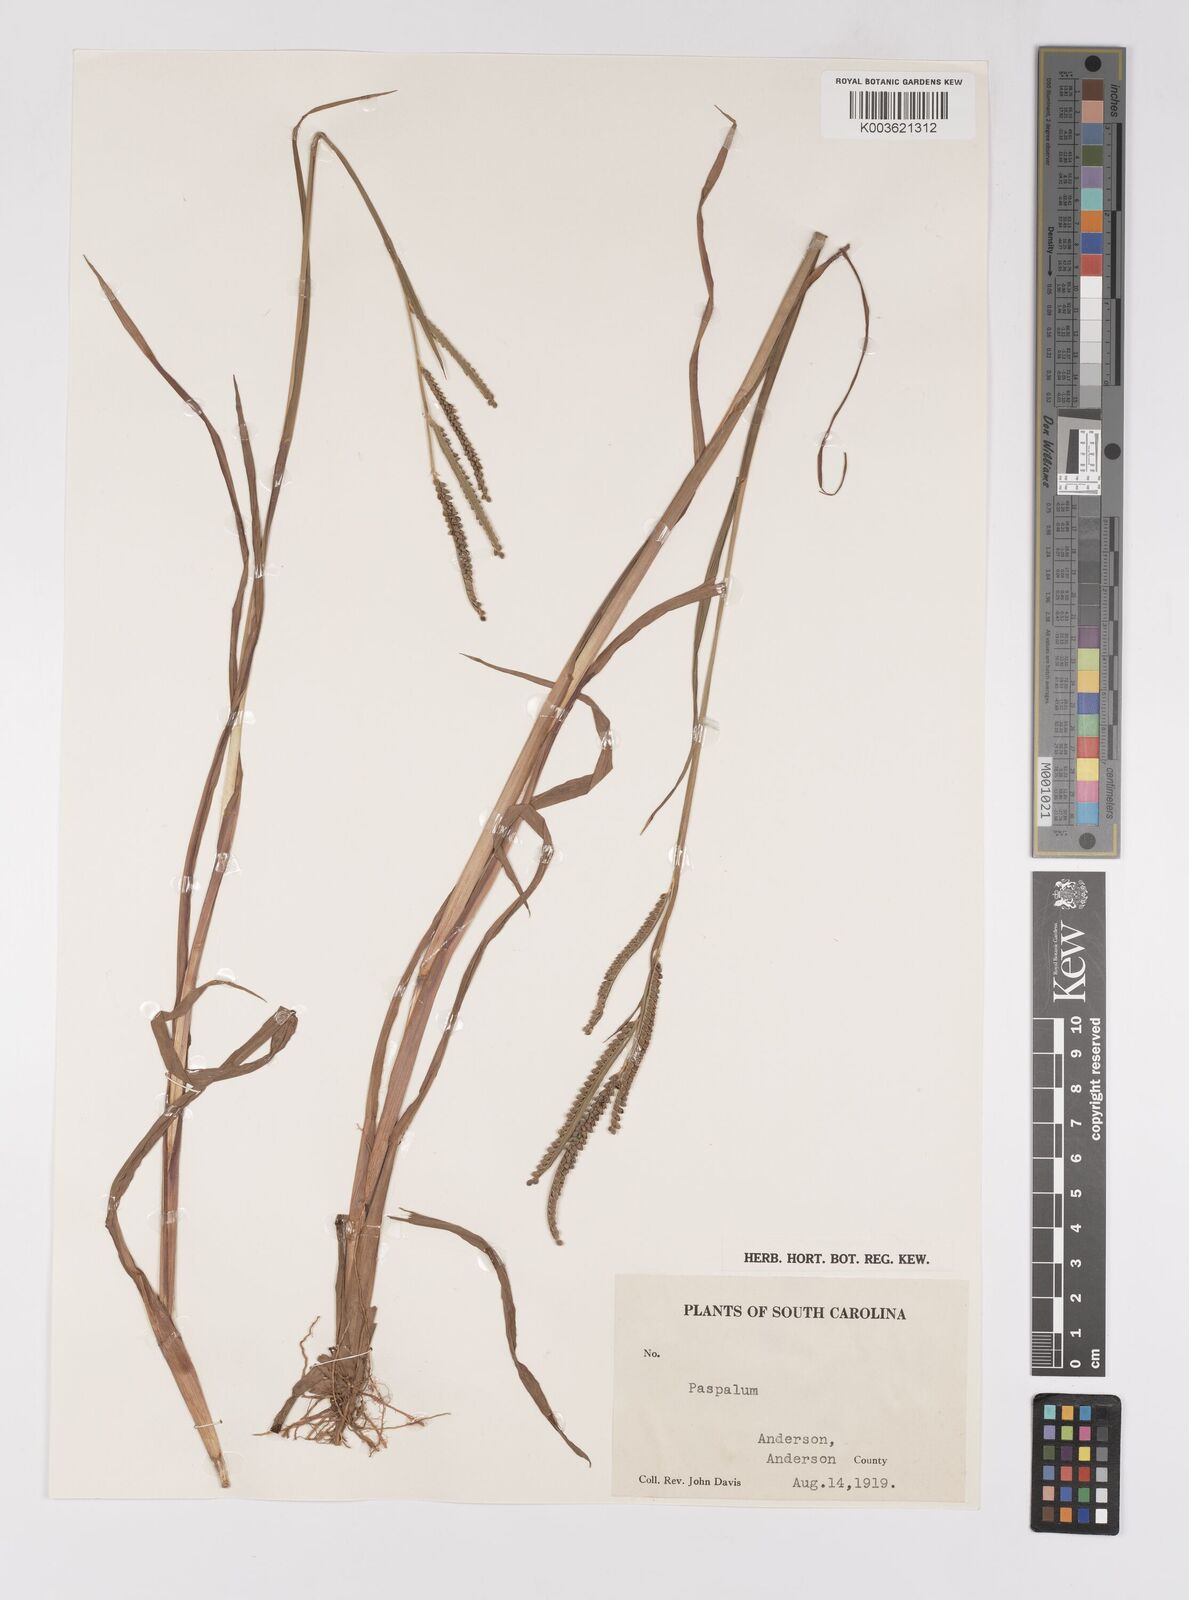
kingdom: Plantae
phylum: Tracheophyta
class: Liliopsida
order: Poales
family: Poaceae
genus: Paspalum
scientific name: Paspalum scrobiculatum
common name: Kodo millet
